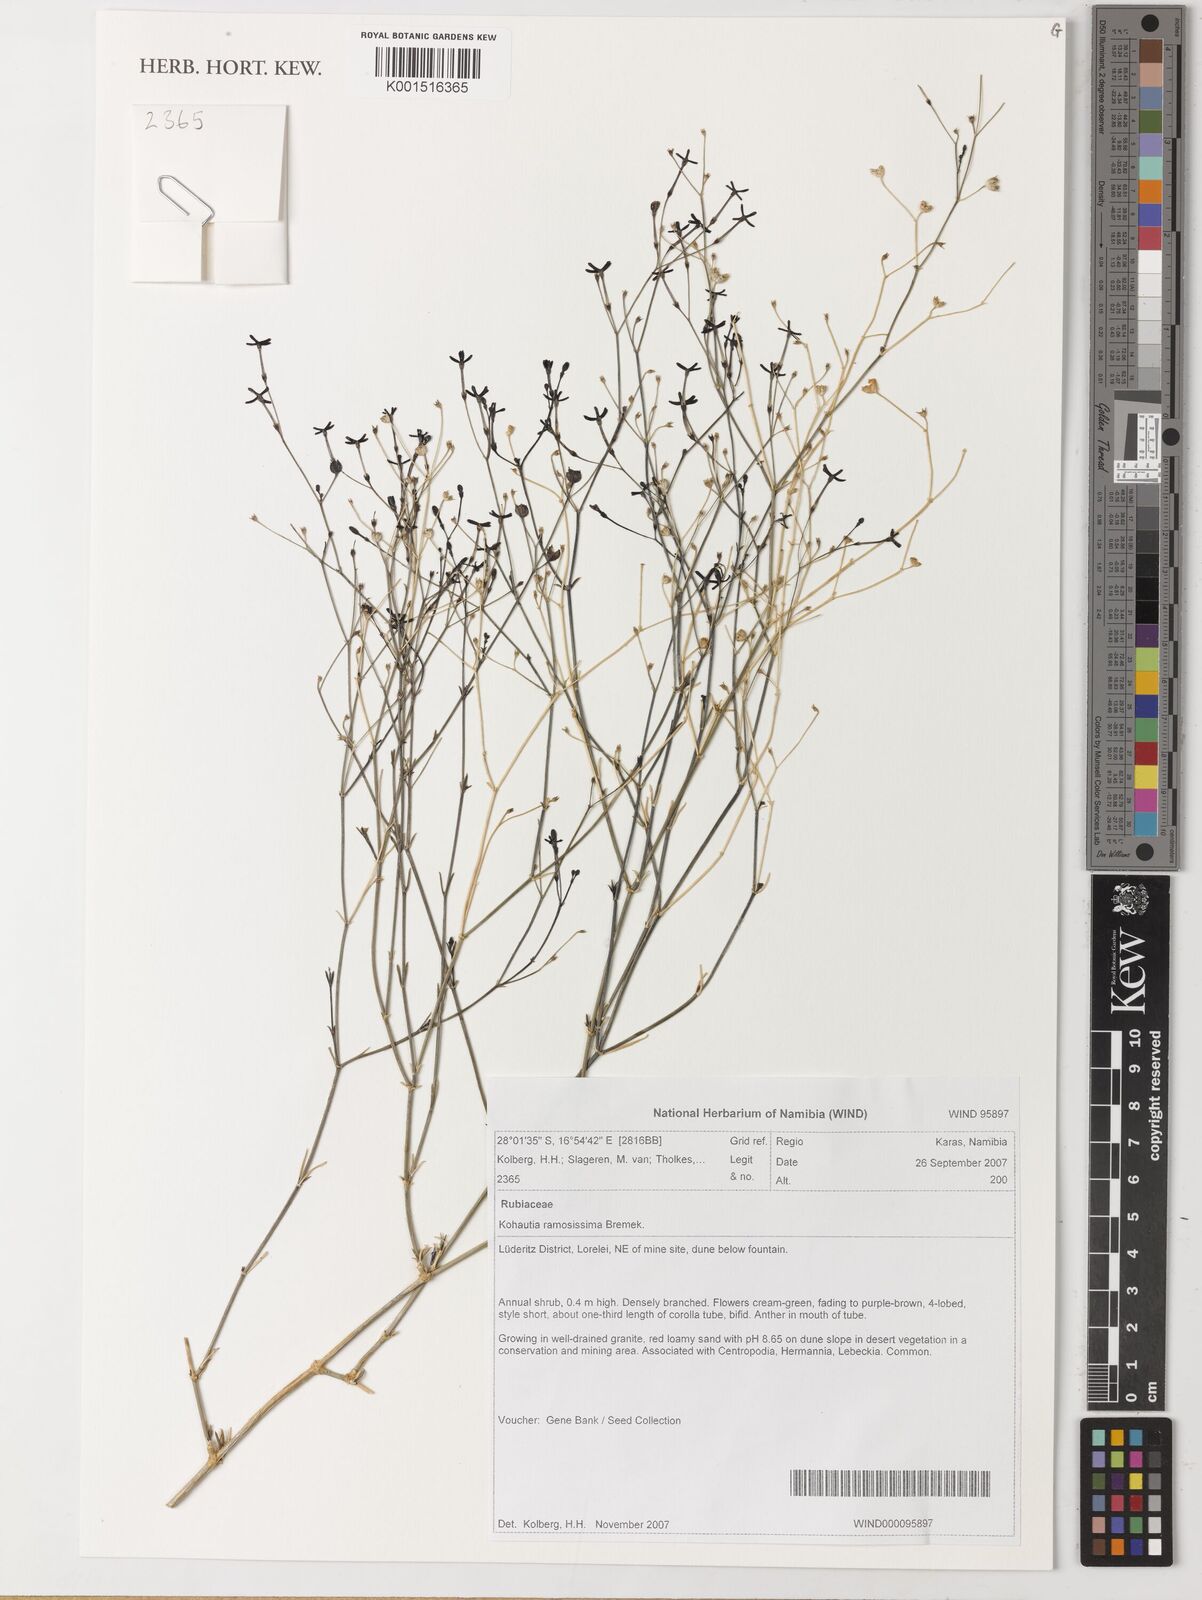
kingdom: Plantae
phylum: Tracheophyta
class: Magnoliopsida
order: Gentianales
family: Rubiaceae
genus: Kohautia
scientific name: Kohautia ramosissima
